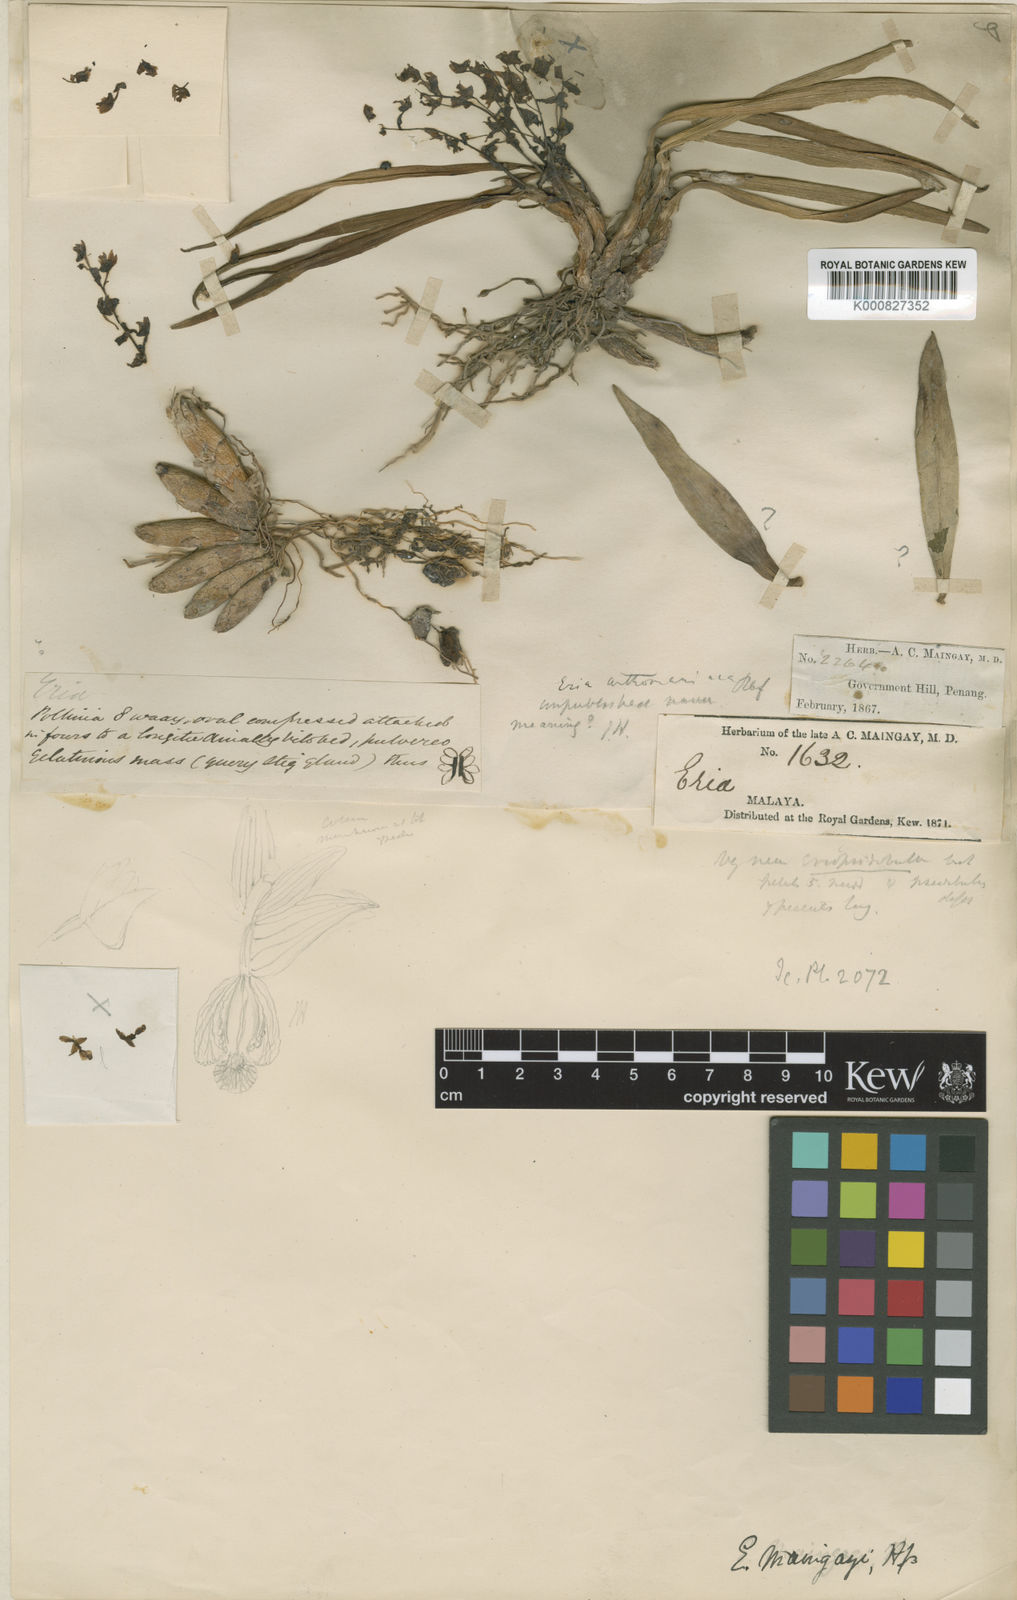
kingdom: Plantae
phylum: Tracheophyta
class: Liliopsida
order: Asparagales
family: Orchidaceae
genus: Pinalia
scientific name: Pinalia maingayi
